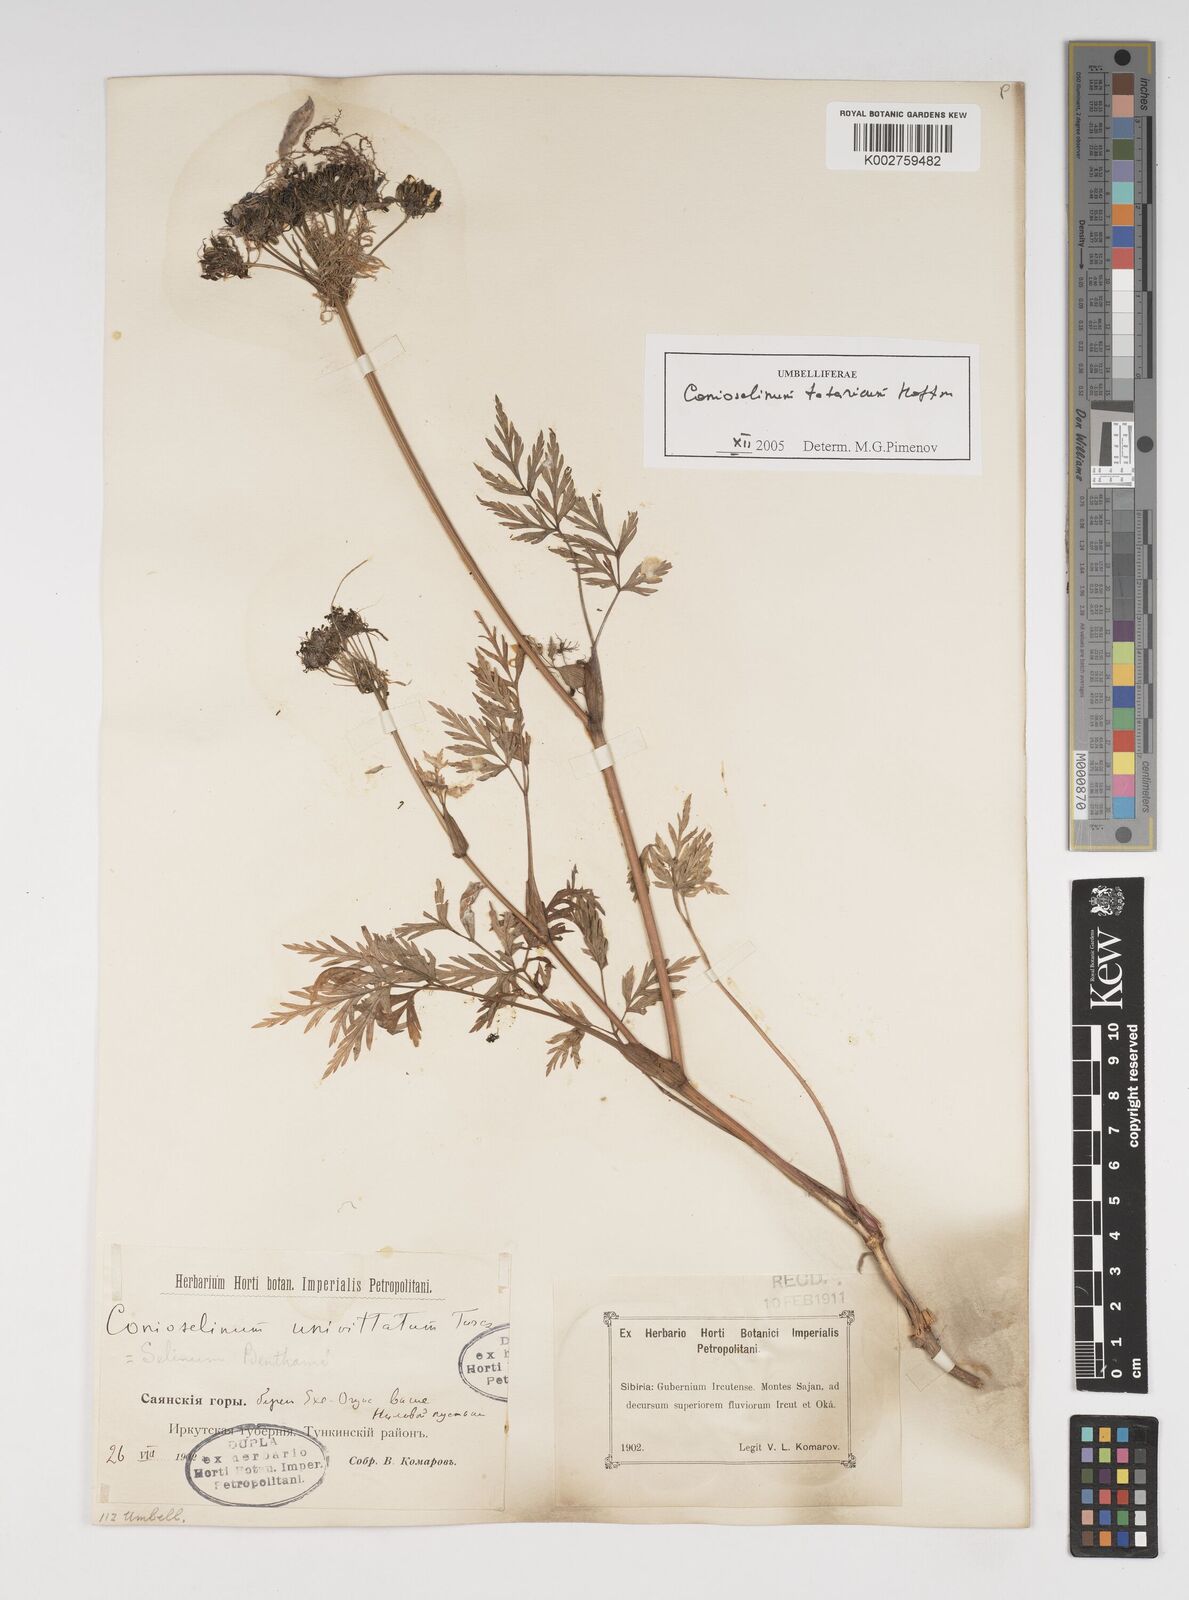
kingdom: Plantae
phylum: Tracheophyta
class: Magnoliopsida
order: Apiales
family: Apiaceae
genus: Conioselinum
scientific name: Conioselinum tataricum
